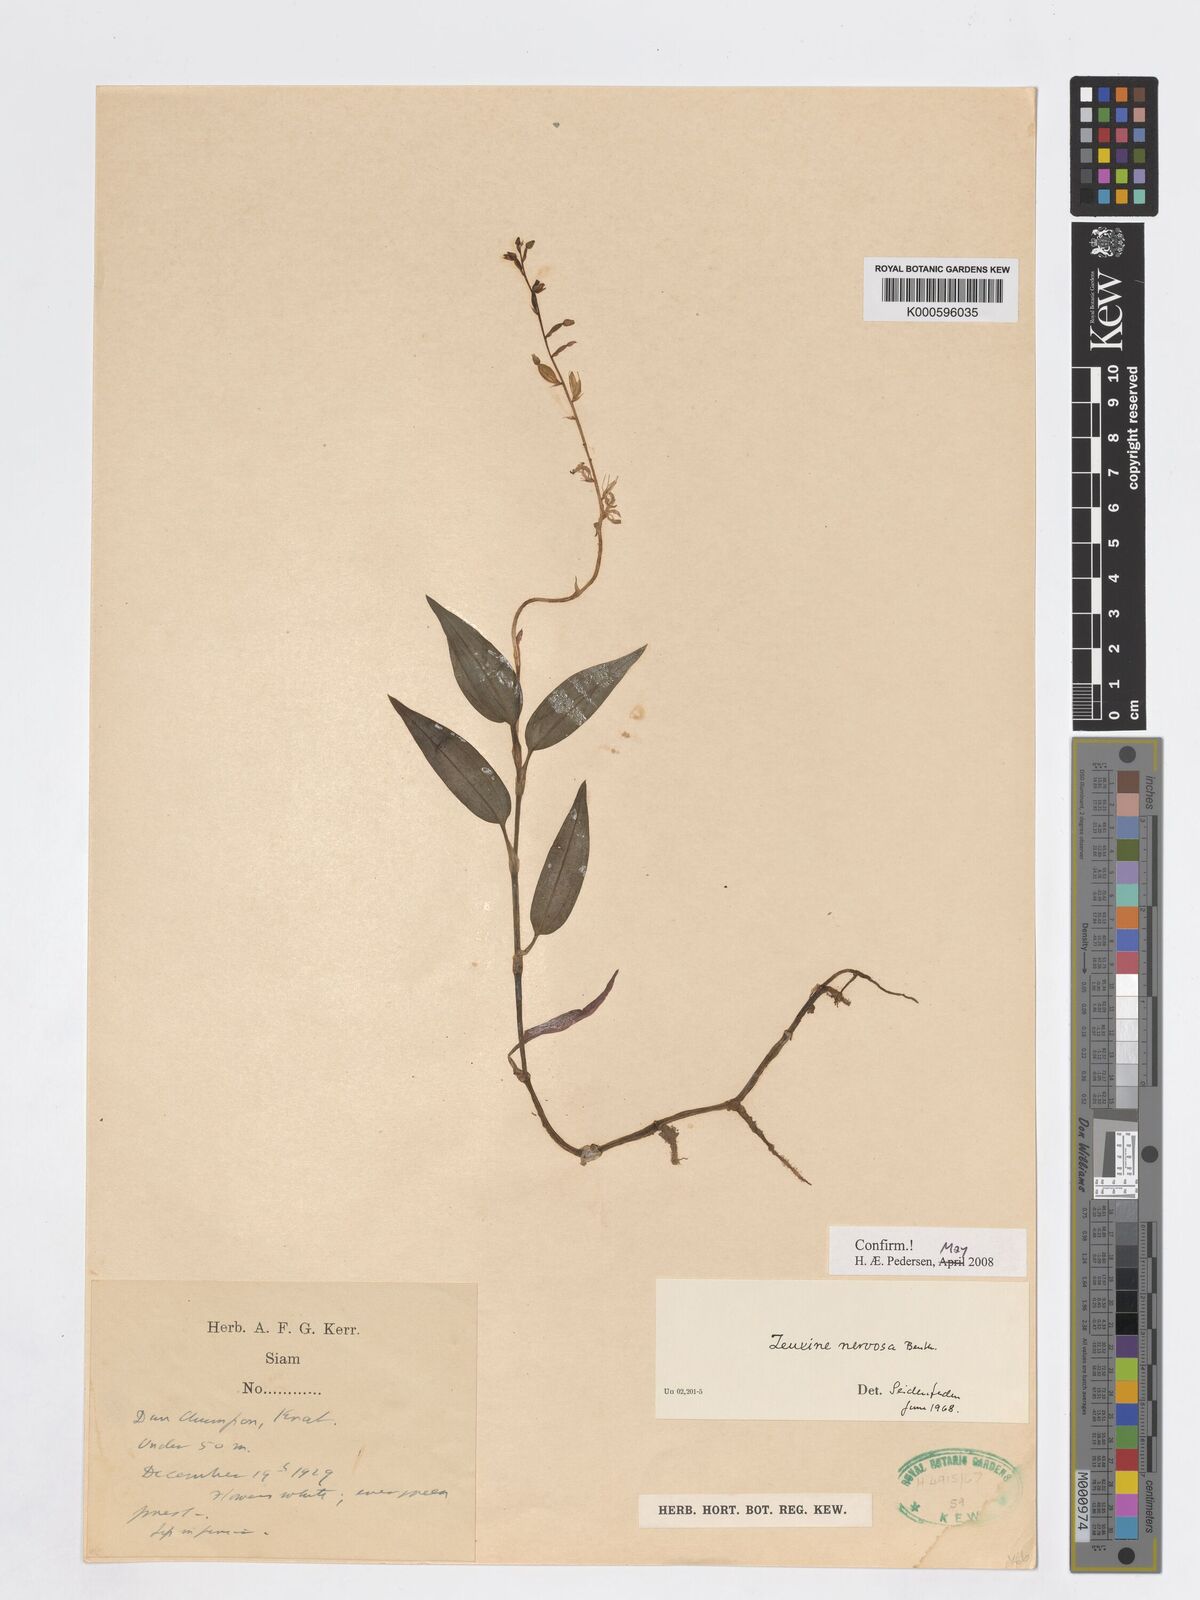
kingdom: Plantae
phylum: Tracheophyta
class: Liliopsida
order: Asparagales
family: Orchidaceae
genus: Zeuxine
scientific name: Zeuxine
